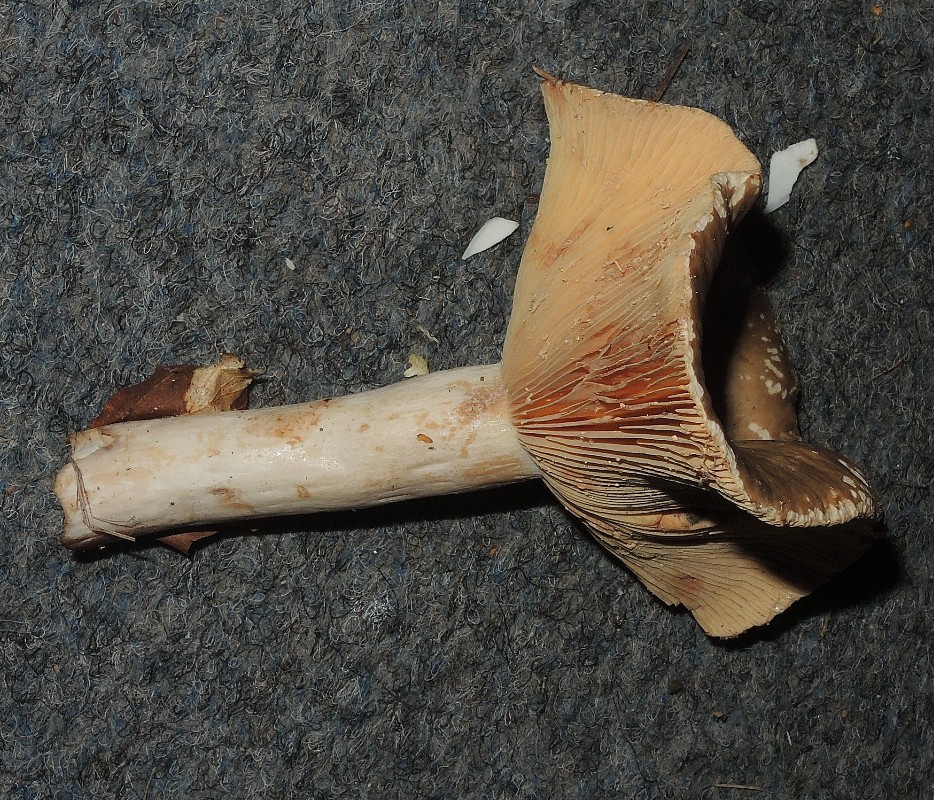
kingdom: Fungi
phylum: Basidiomycota
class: Agaricomycetes
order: Russulales
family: Russulaceae
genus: Lactarius
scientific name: Lactarius pterosporus
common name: vingesporet mælkehat
